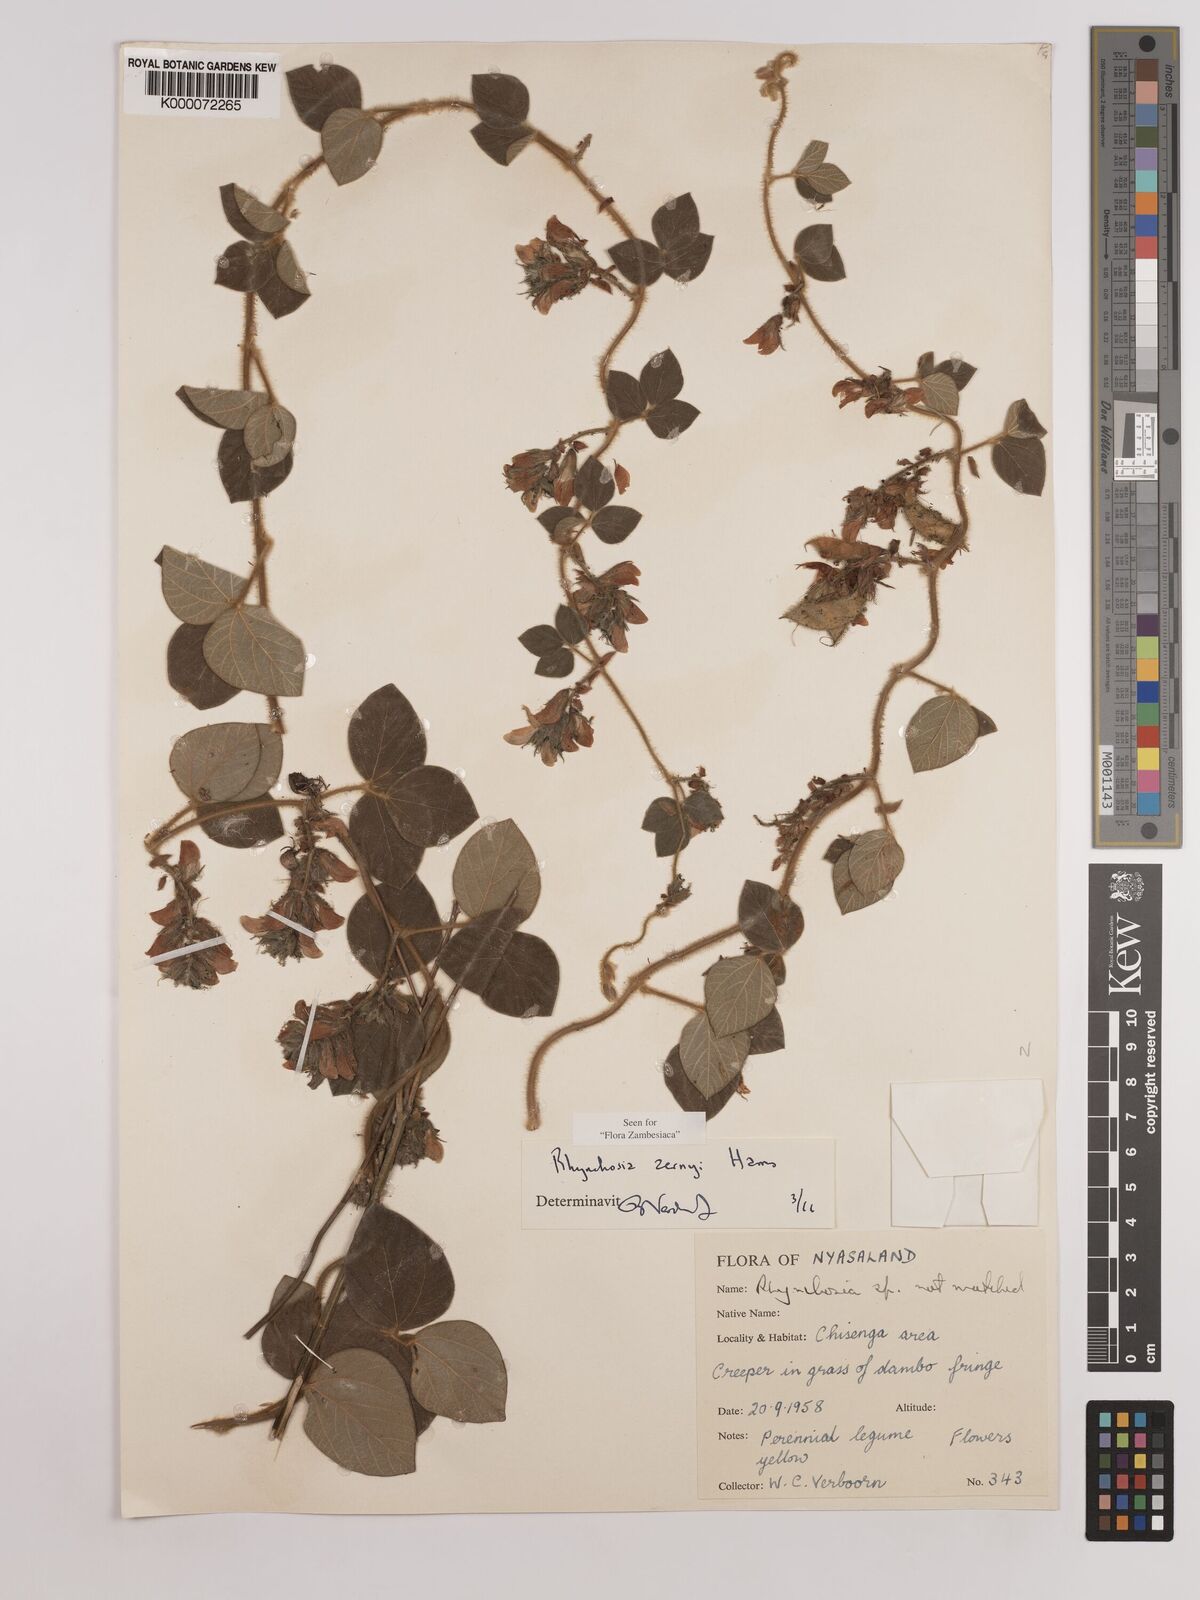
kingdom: Plantae
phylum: Tracheophyta
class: Magnoliopsida
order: Fabales
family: Fabaceae
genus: Rhynchosia
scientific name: Rhynchosia zernyi
